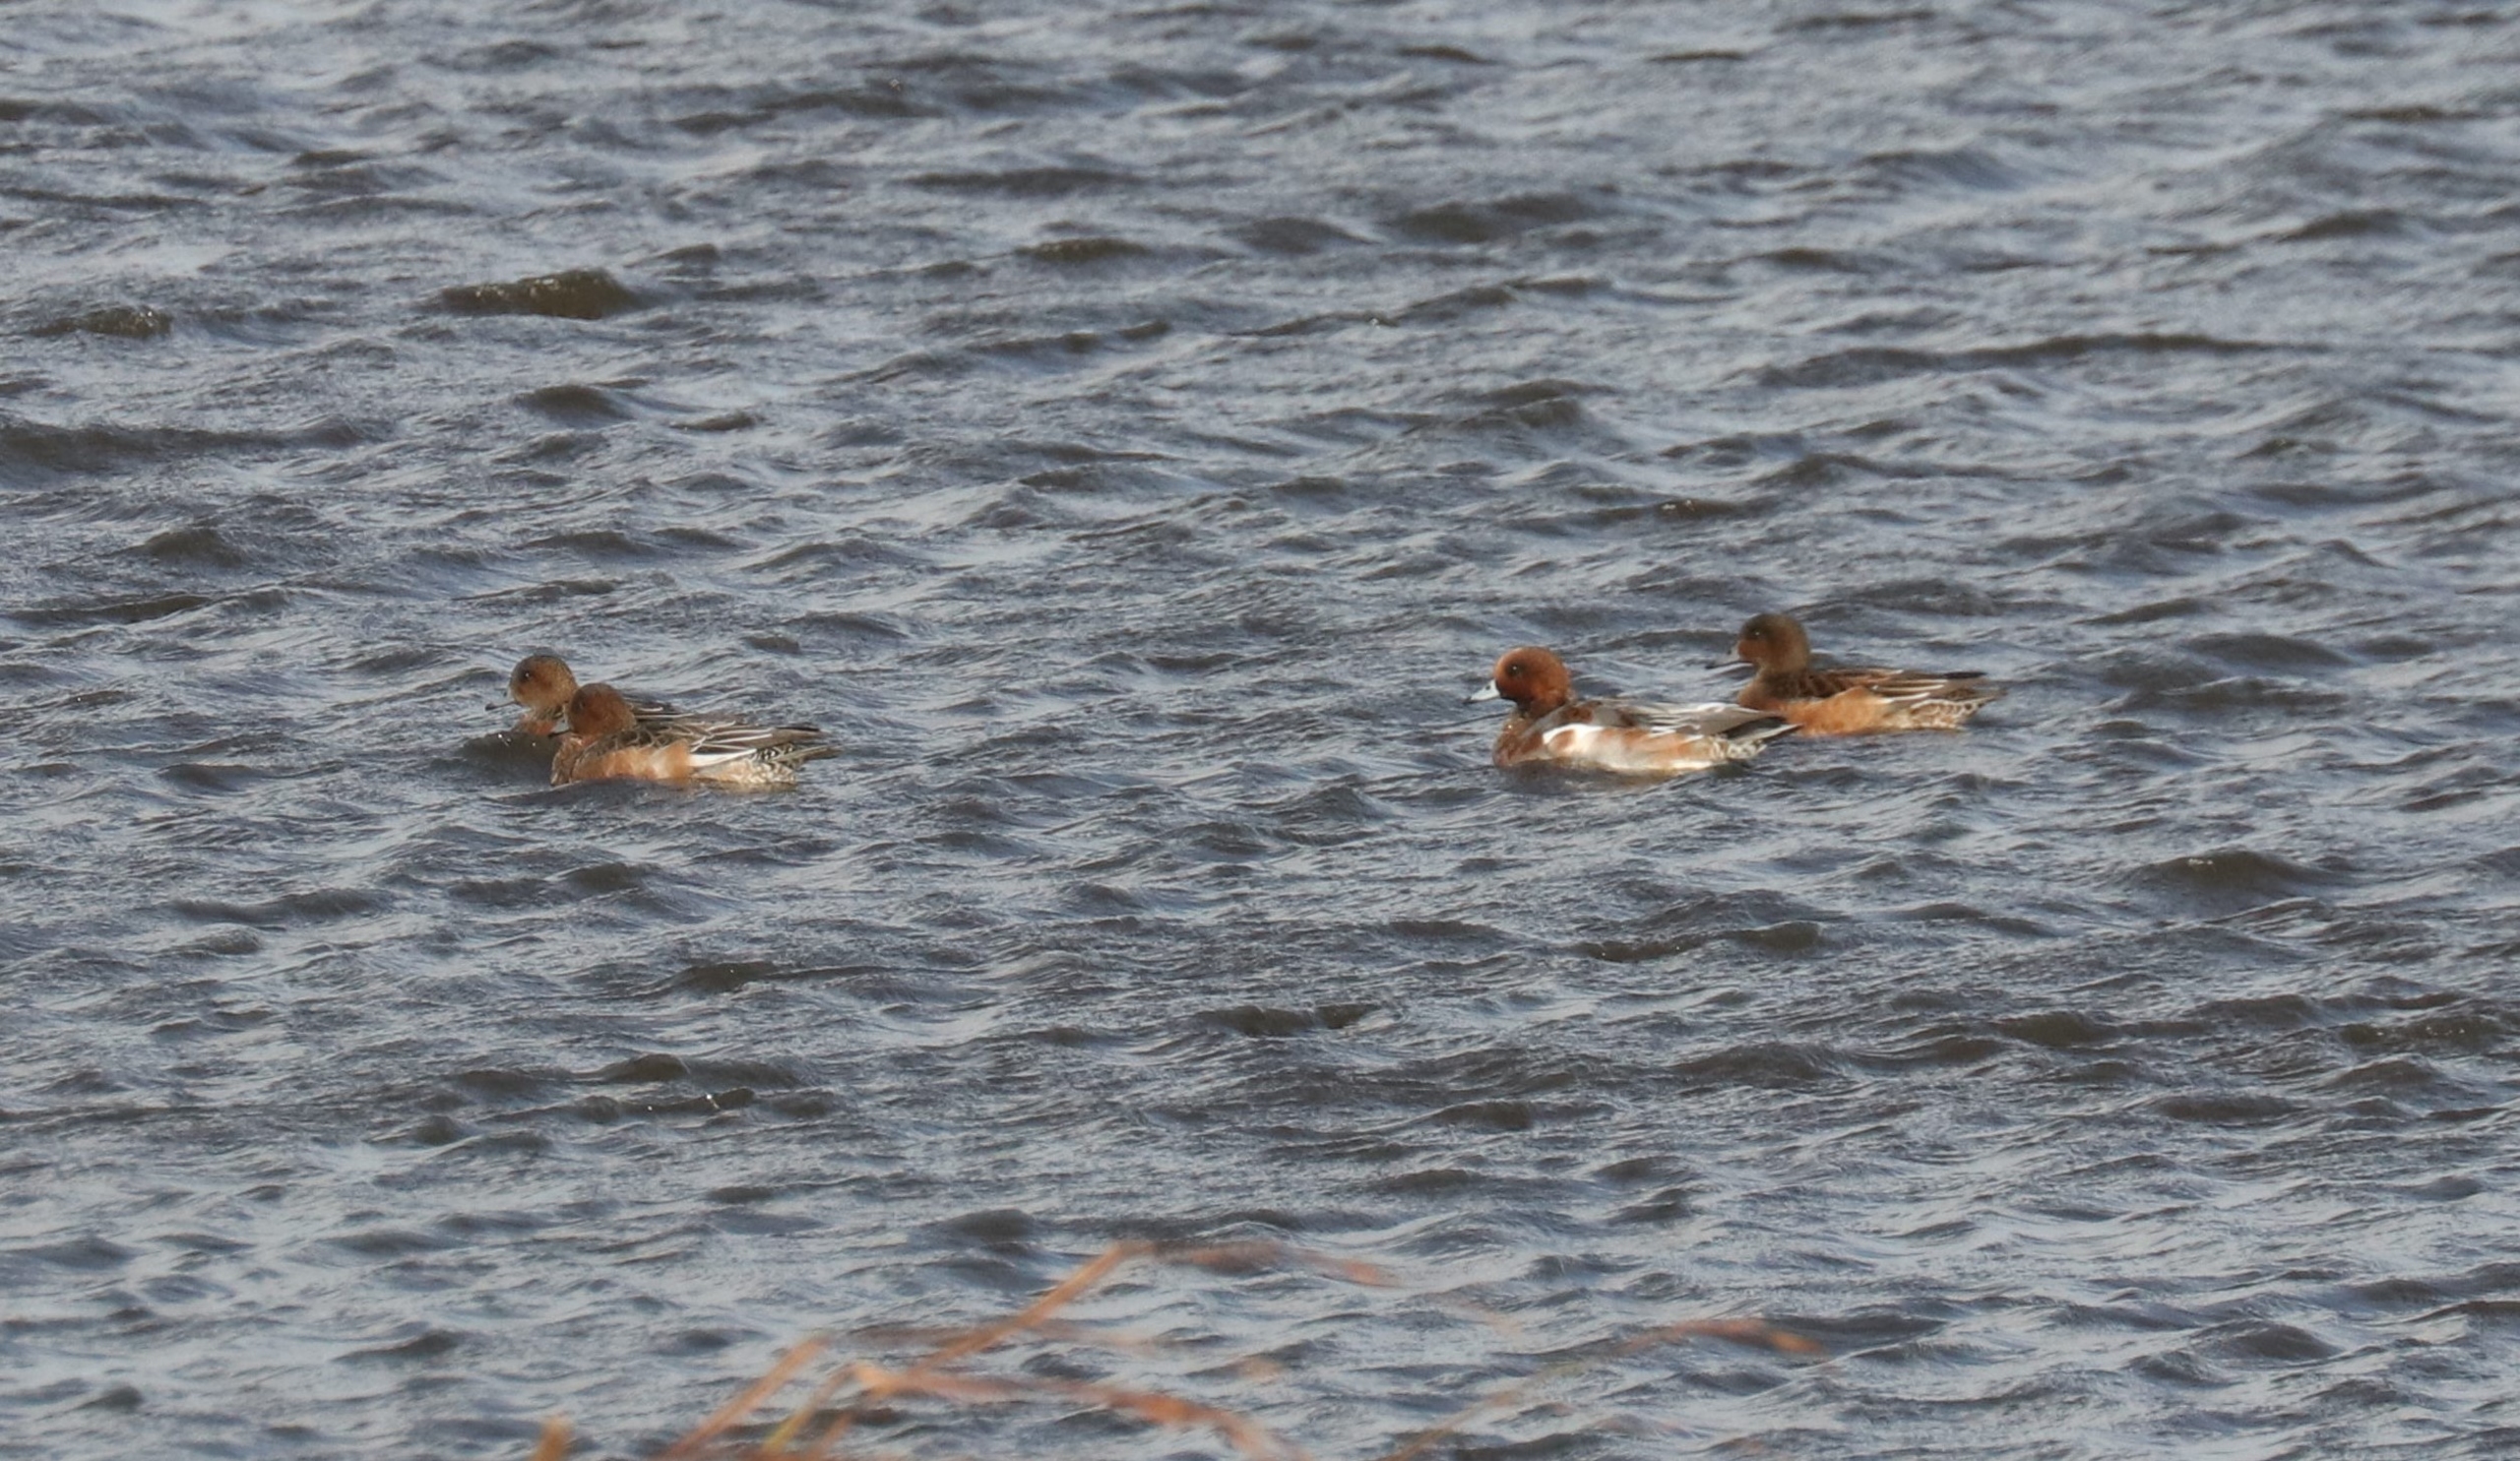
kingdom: Animalia
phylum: Chordata
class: Aves
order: Anseriformes
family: Anatidae
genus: Mareca
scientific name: Mareca penelope
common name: Pibeand
